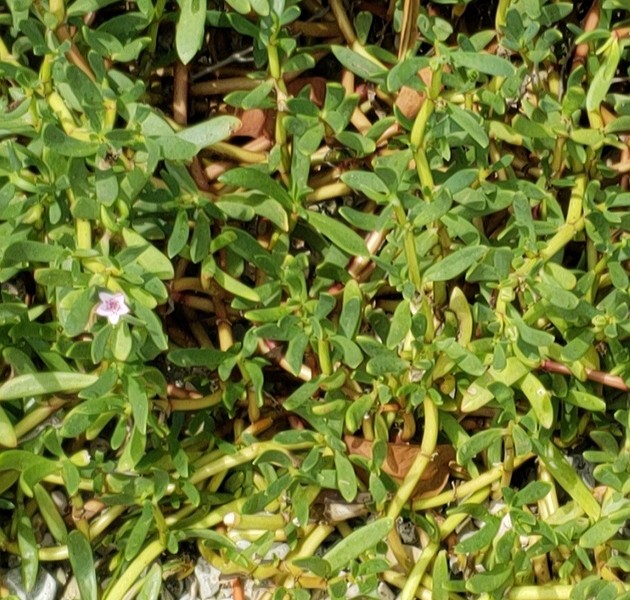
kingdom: Plantae
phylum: Tracheophyta
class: Magnoliopsida
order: Caryophyllales
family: Aizoaceae
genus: Sesuvium
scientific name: Sesuvium portulacastrum
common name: sea purslane
